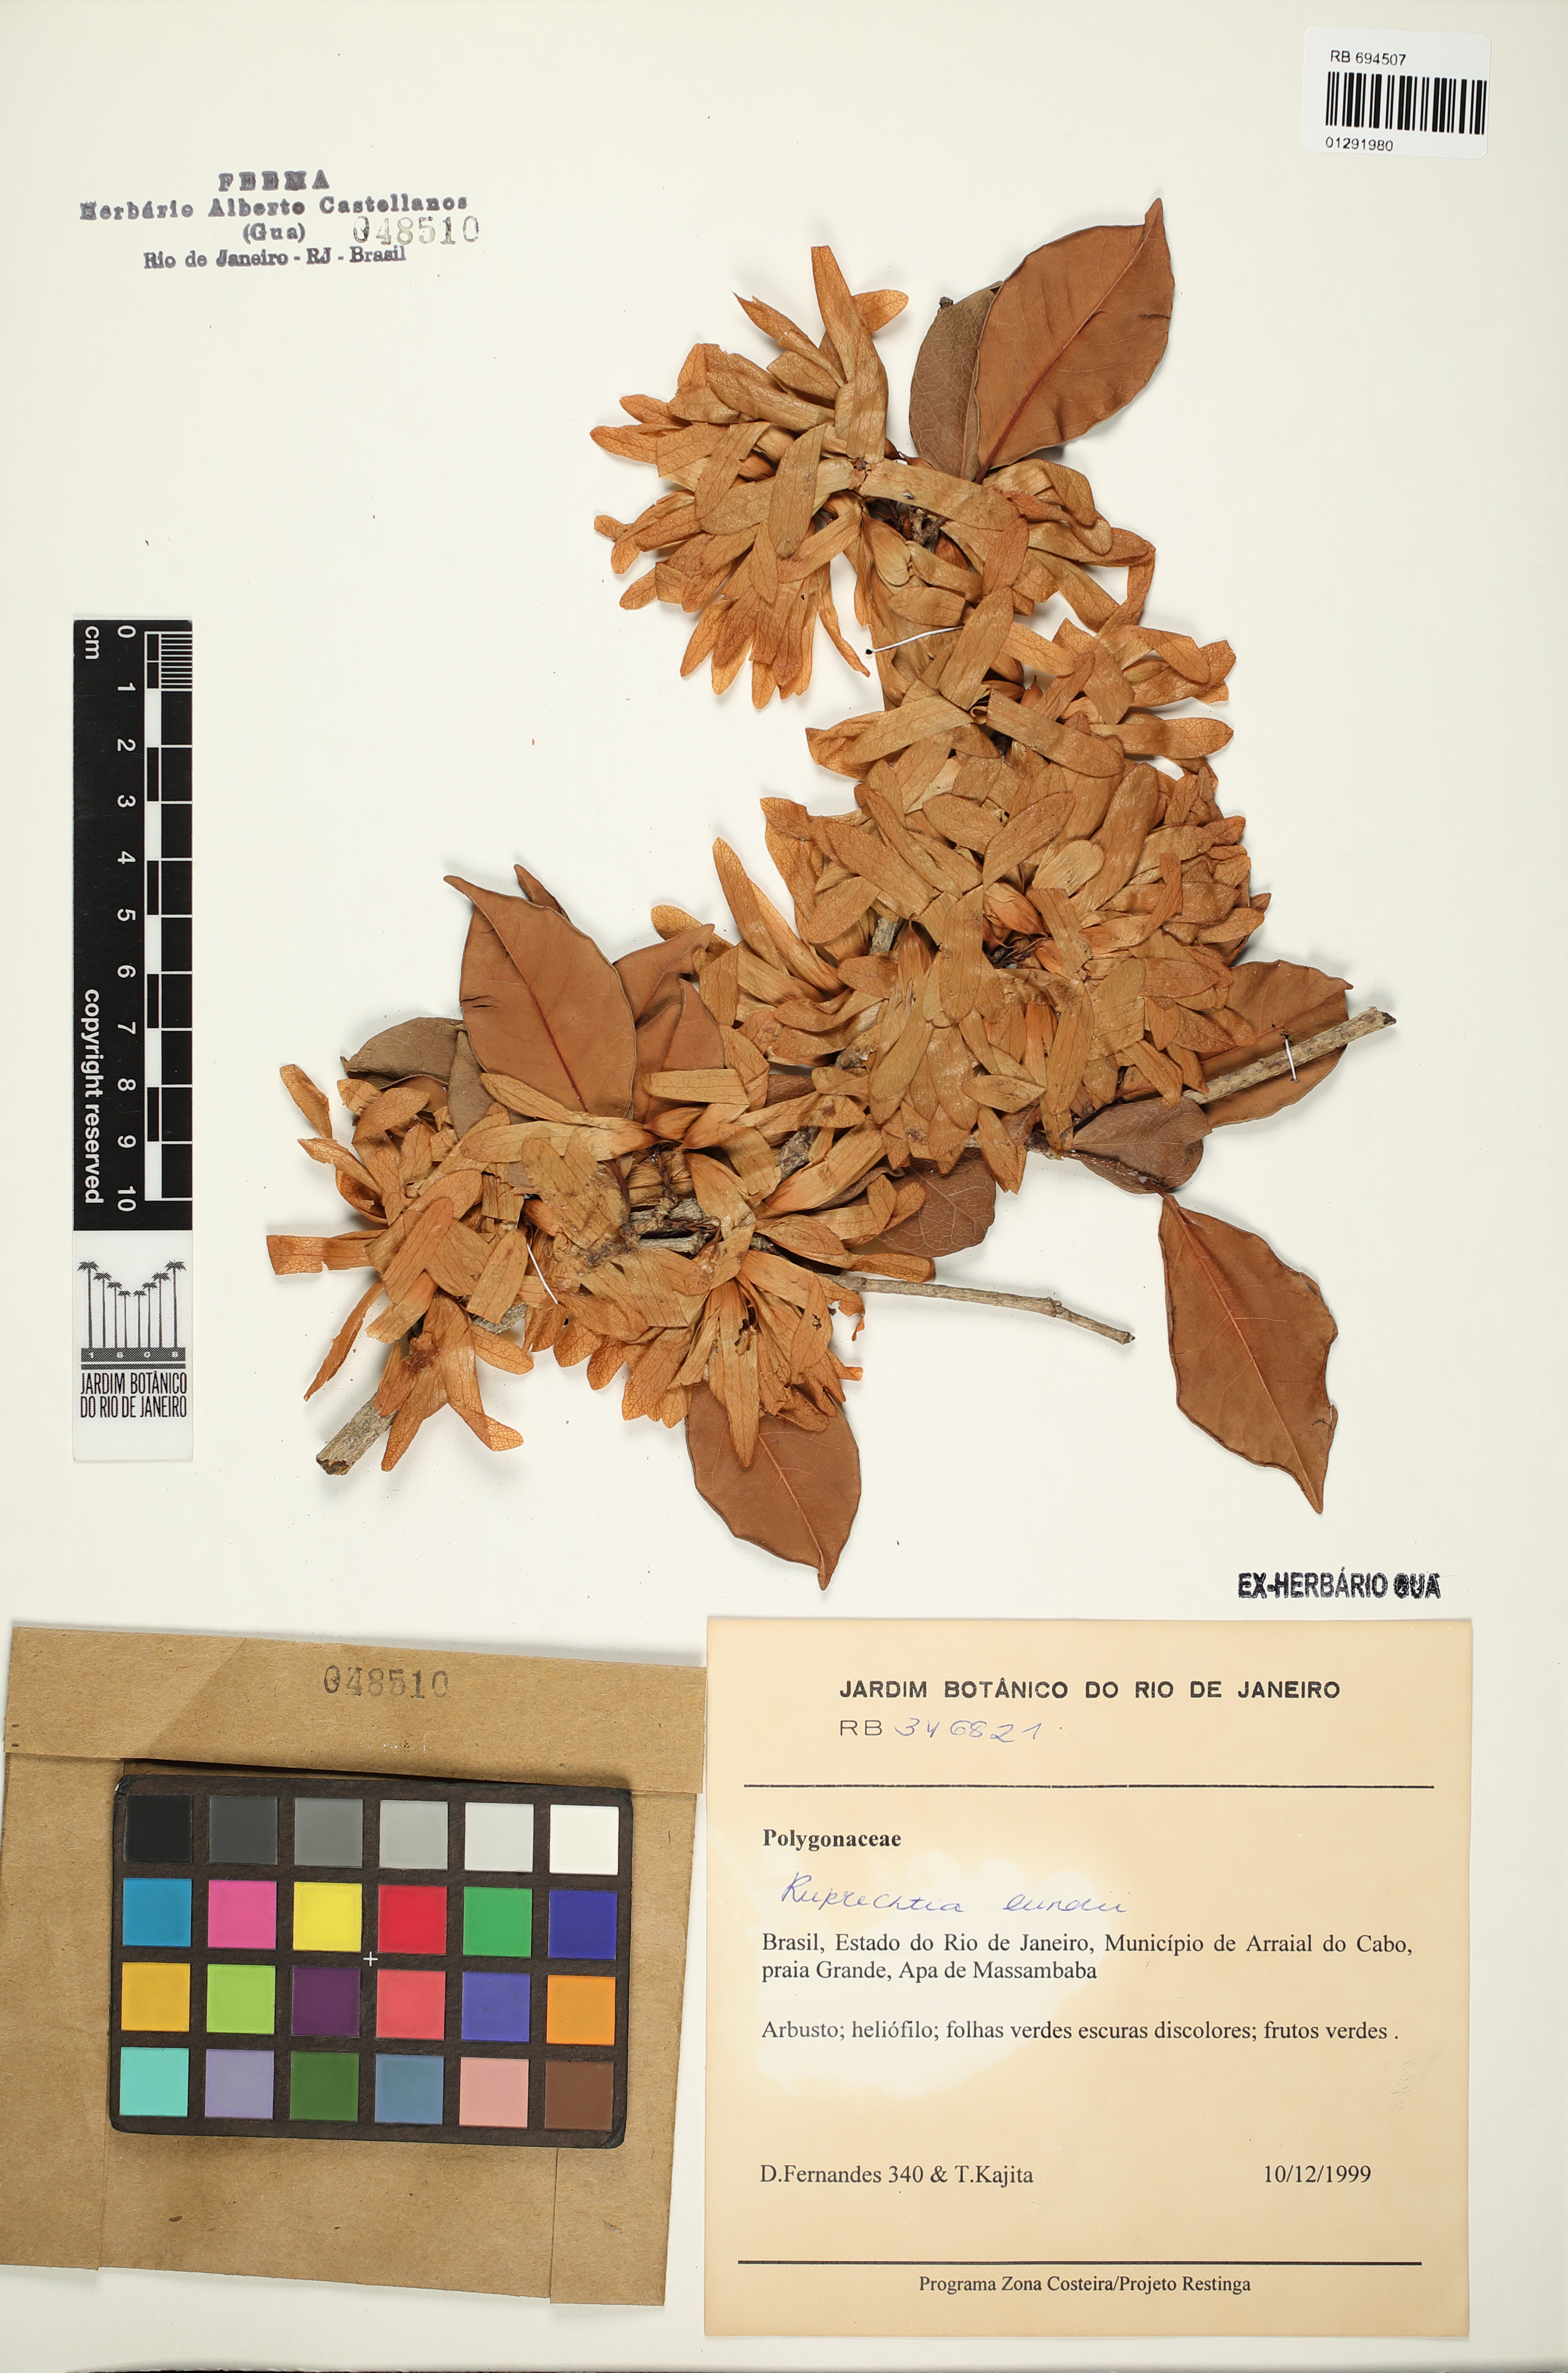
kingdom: Plantae
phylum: Tracheophyta
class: Magnoliopsida
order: Caryophyllales
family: Polygonaceae
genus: Ruprechtia
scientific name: Ruprechtia lundii
